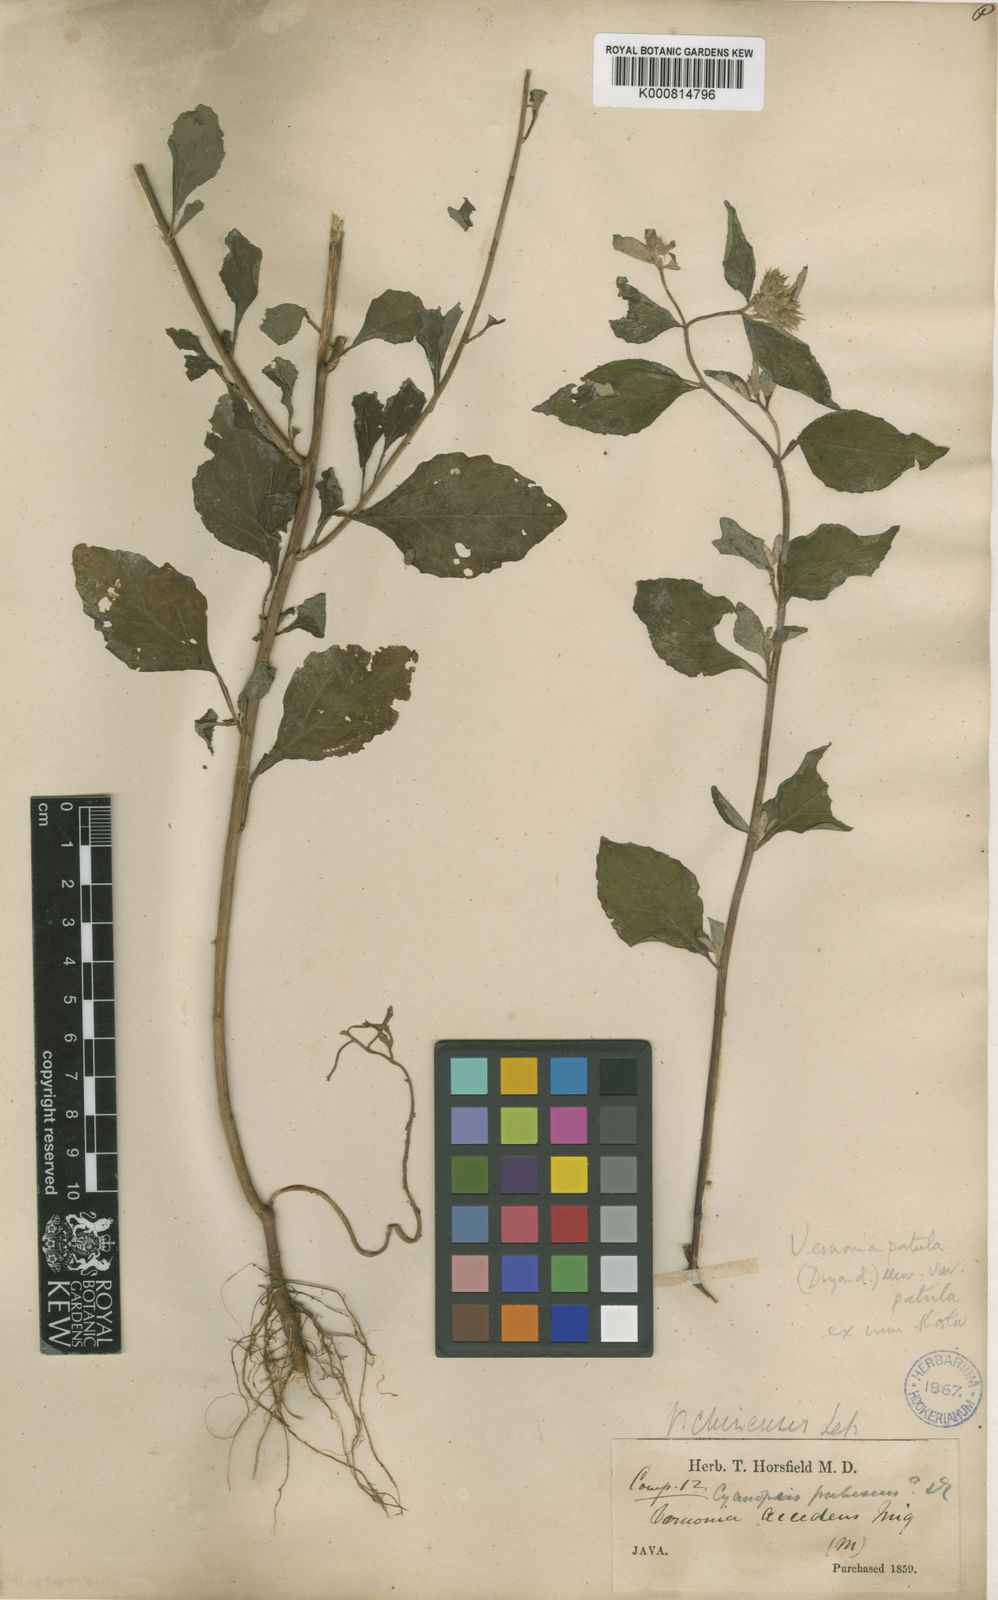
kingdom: Plantae
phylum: Tracheophyta
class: Magnoliopsida
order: Asterales
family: Asteraceae
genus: Cyanthillium
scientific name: Cyanthillium patulum
